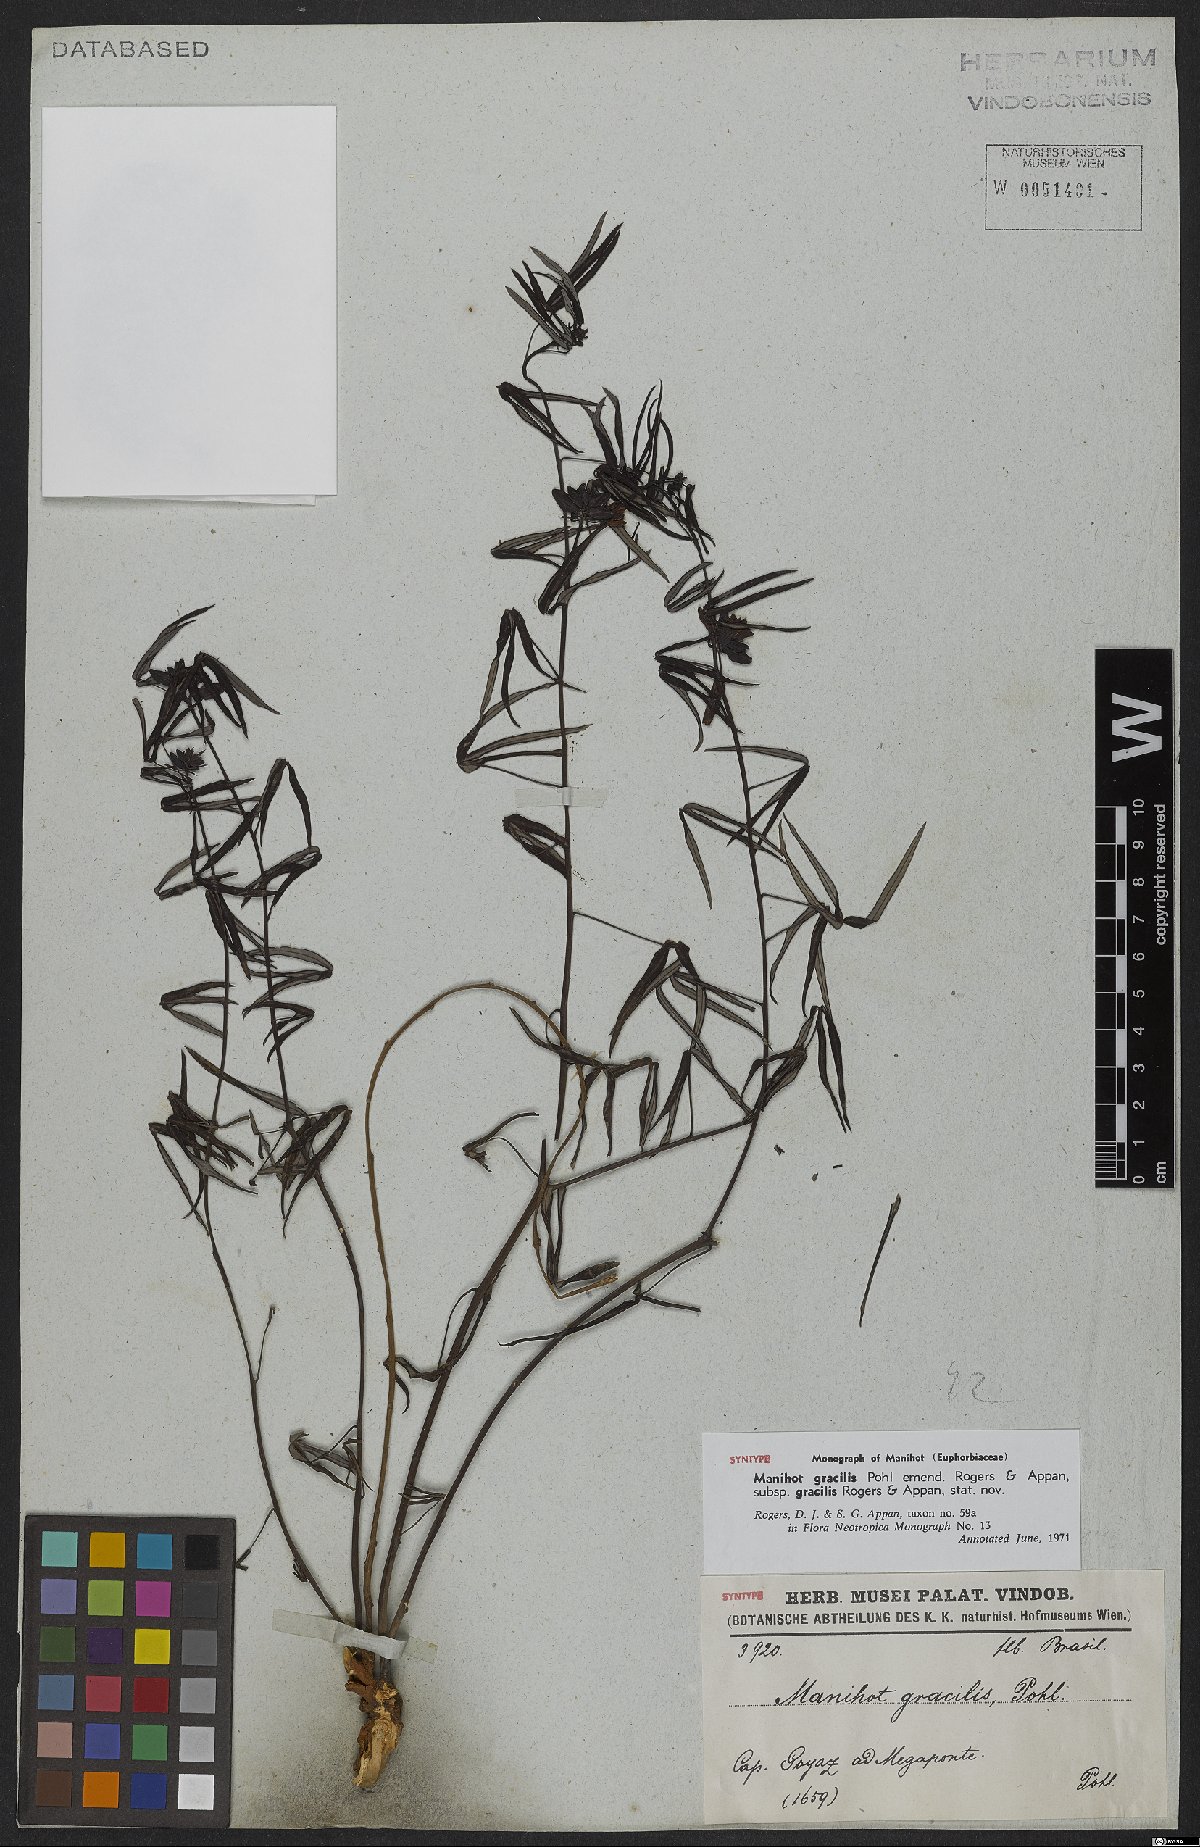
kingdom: Plantae
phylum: Tracheophyta
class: Magnoliopsida
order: Malpighiales
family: Euphorbiaceae
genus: Manihot
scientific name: Manihot gracilis
